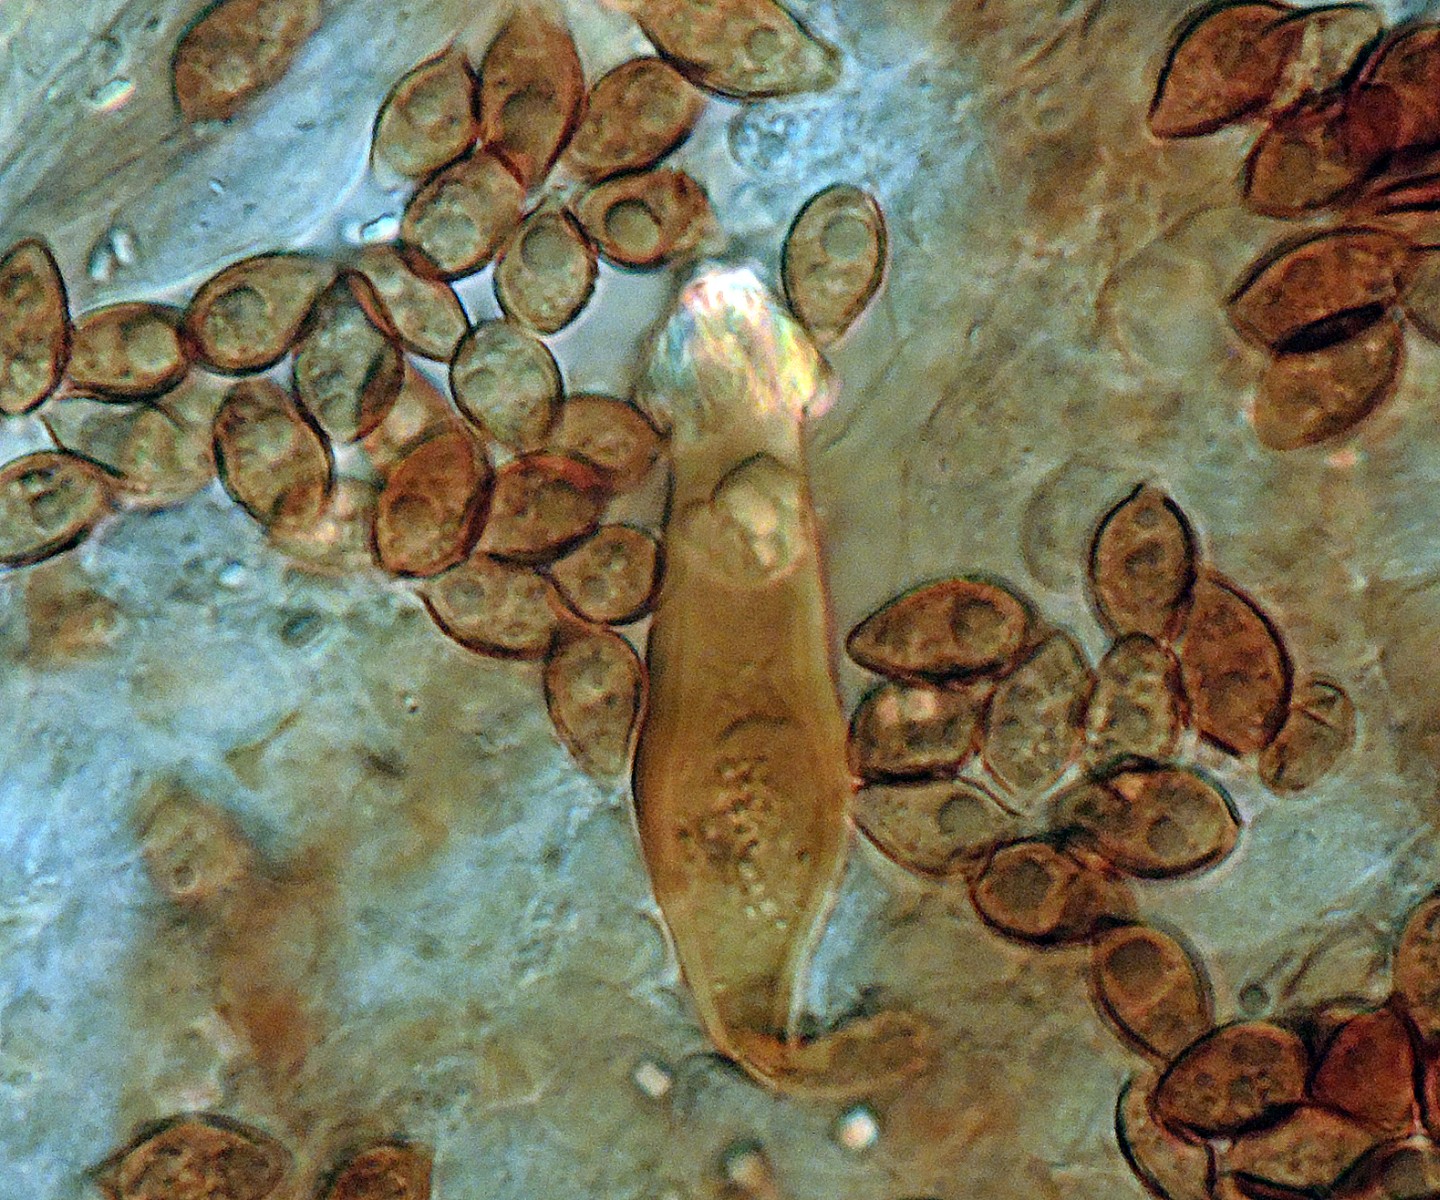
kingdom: Fungi
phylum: Basidiomycota
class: Agaricomycetes
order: Agaricales
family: Hymenogastraceae
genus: Galerina
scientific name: Galerina nana
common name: dværg-hjelmhat
